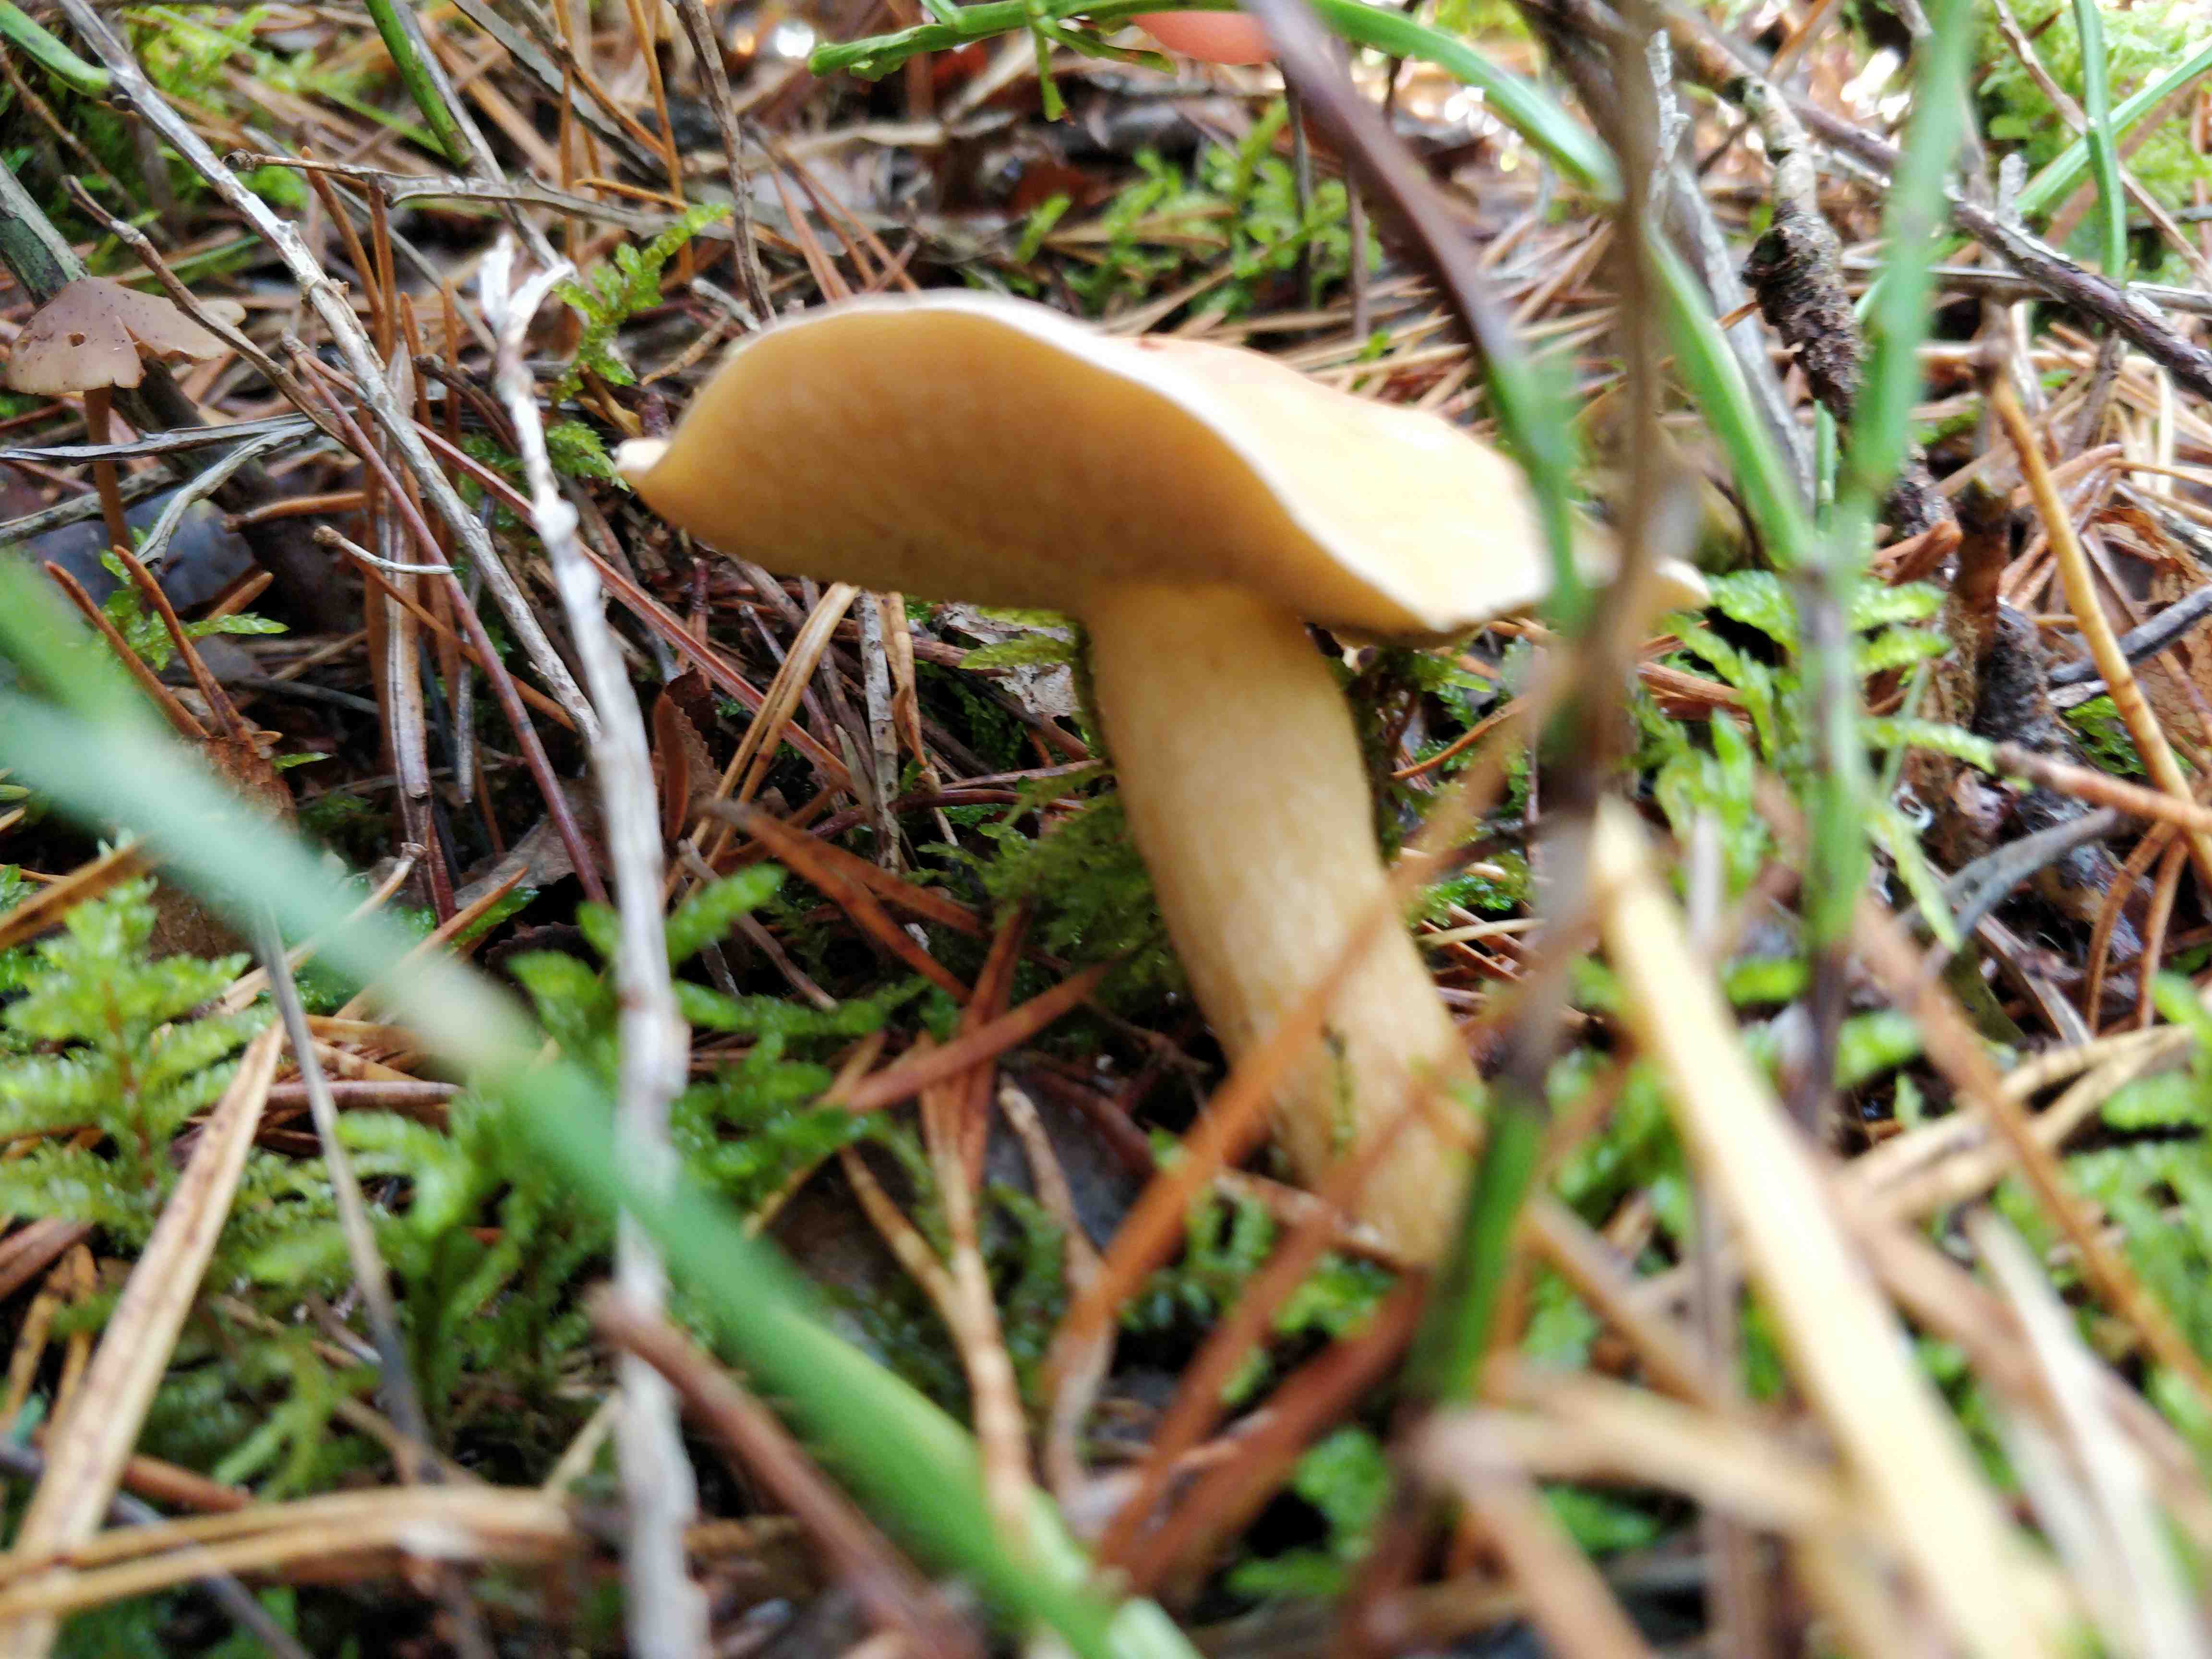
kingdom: Fungi
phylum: Basidiomycota
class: Agaricomycetes
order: Boletales
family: Suillaceae
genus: Suillus
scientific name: Suillus
